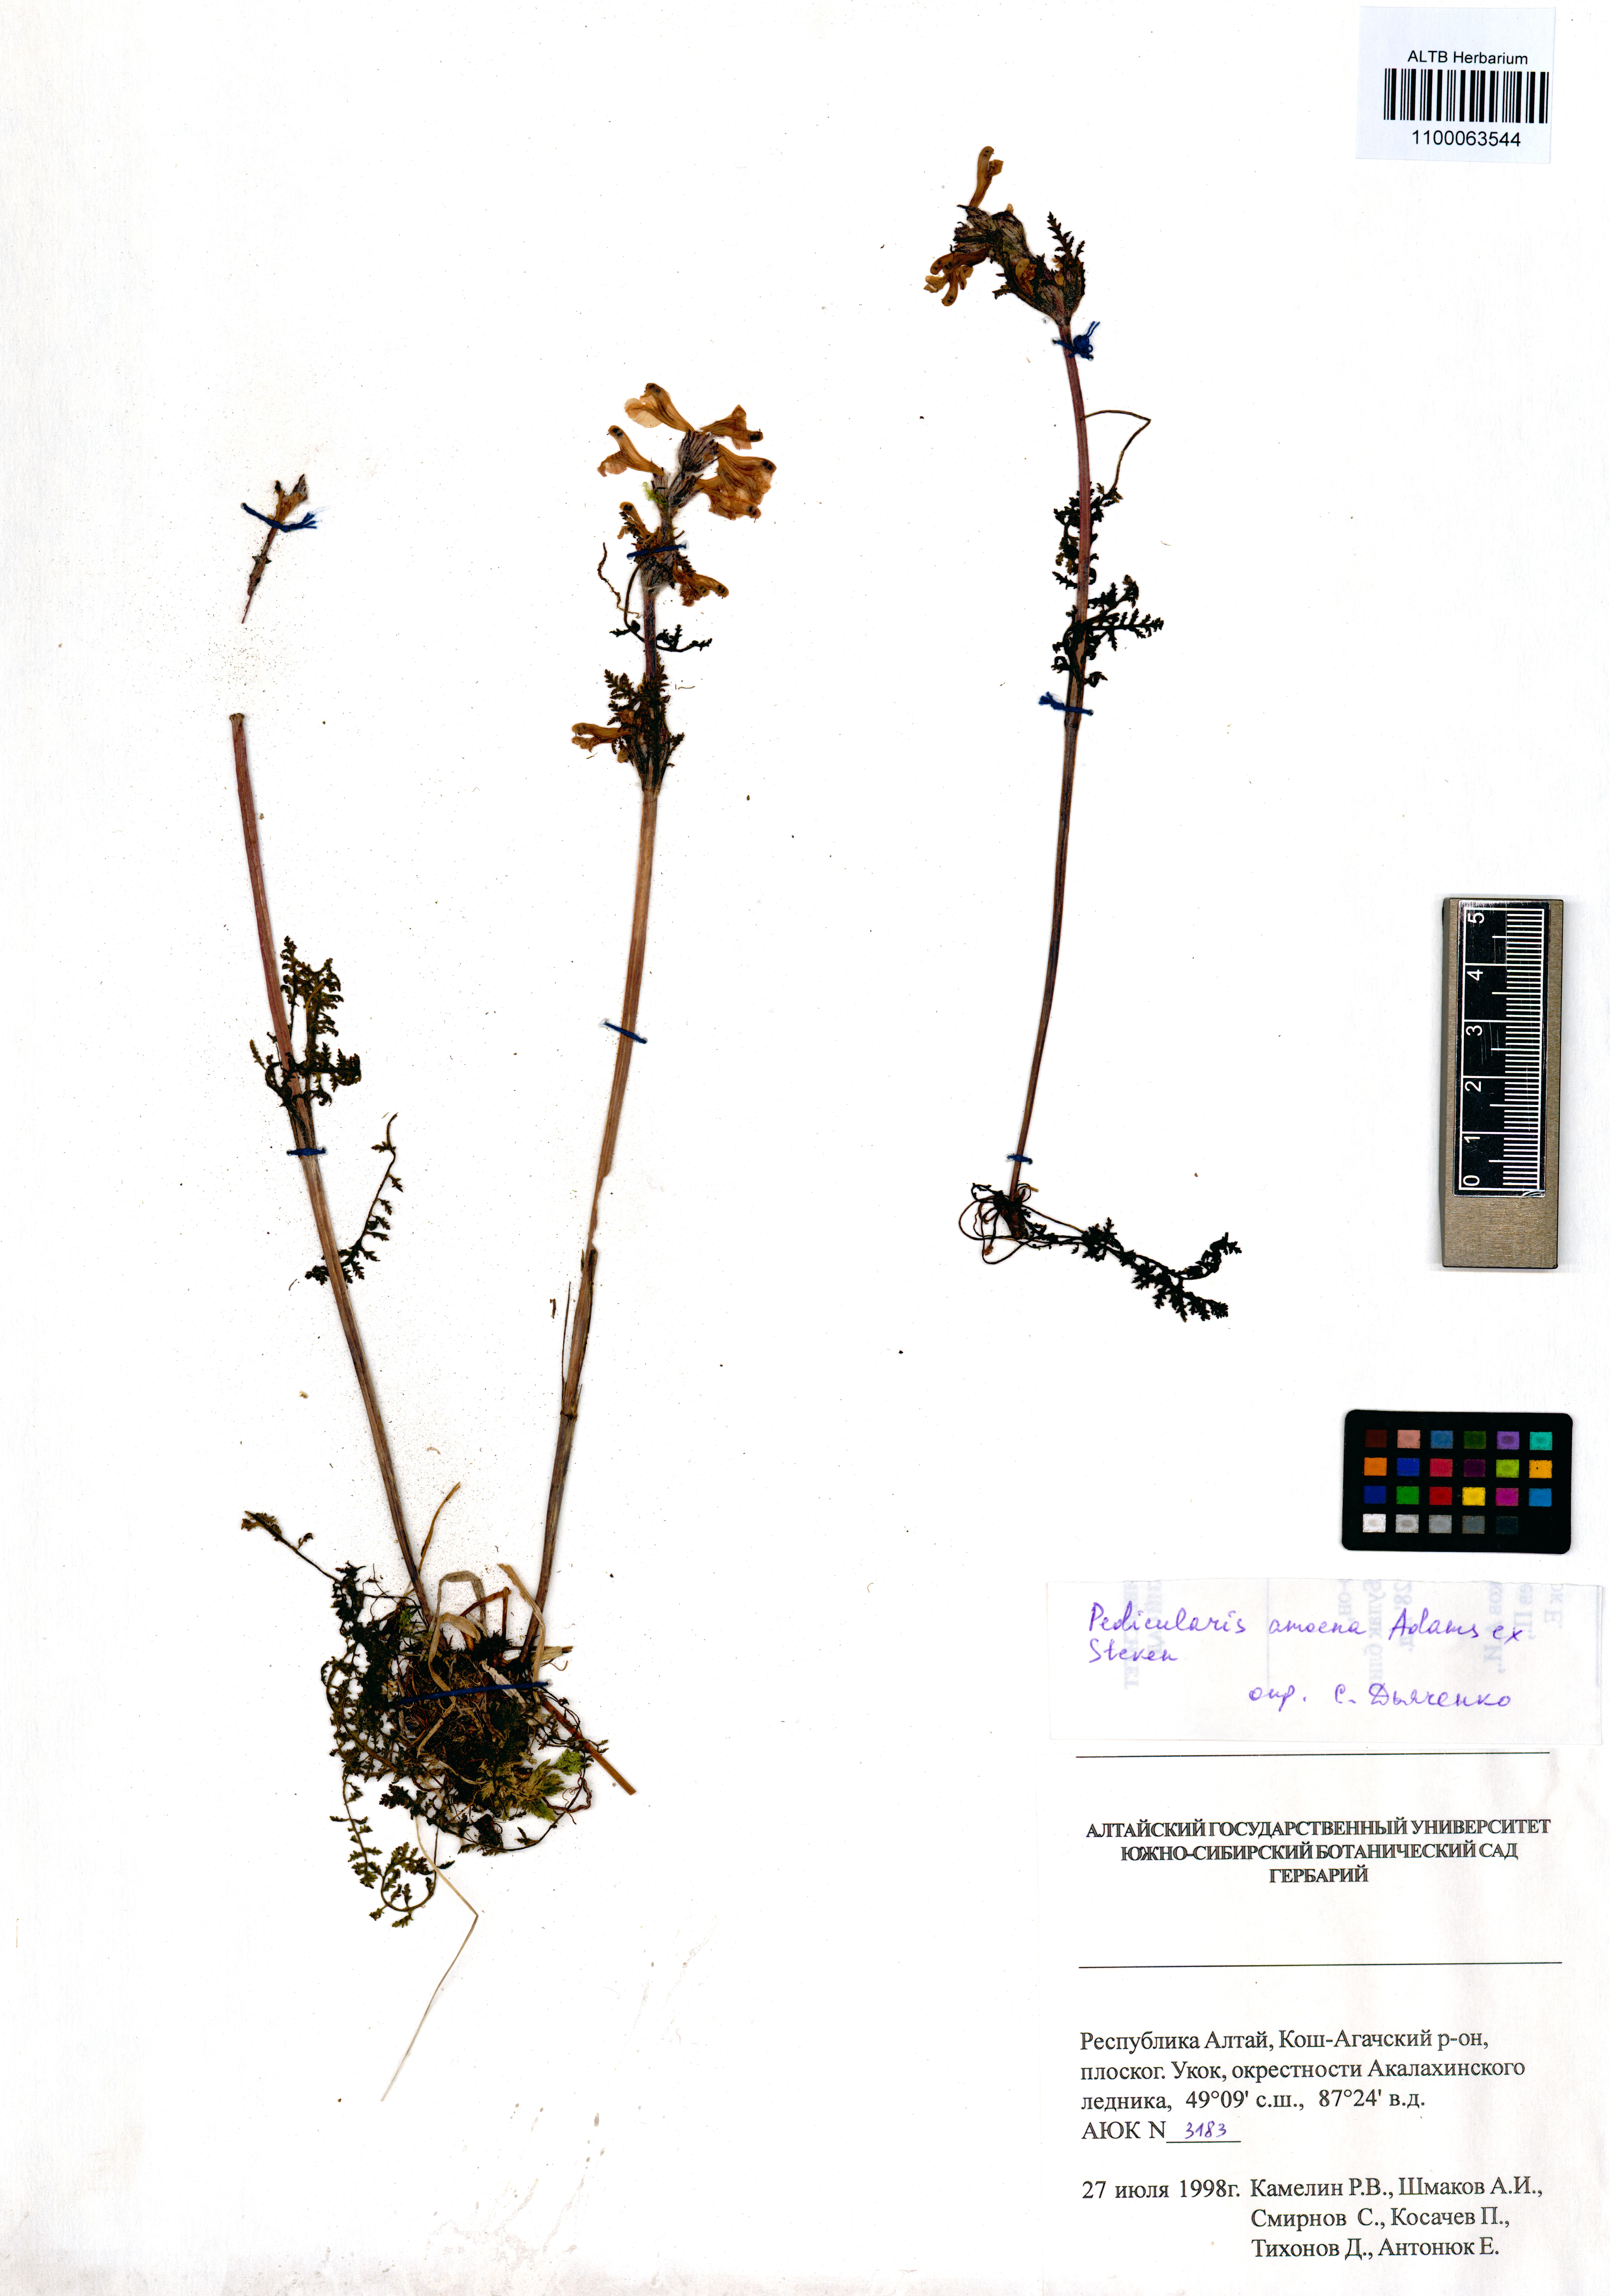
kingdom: Plantae
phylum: Tracheophyta
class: Magnoliopsida
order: Lamiales
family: Orobanchaceae
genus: Pedicularis
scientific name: Pedicularis amoena
